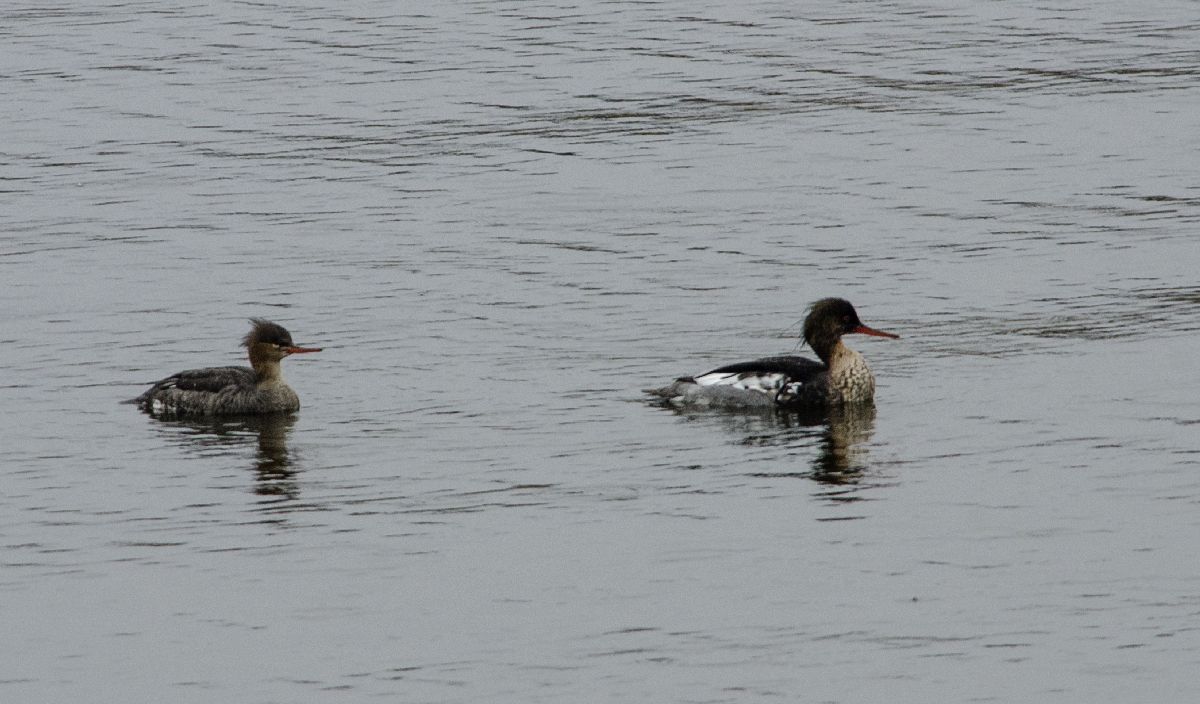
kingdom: Animalia
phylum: Chordata
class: Aves
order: Anseriformes
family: Anatidae
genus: Mergus
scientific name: Mergus serrator
